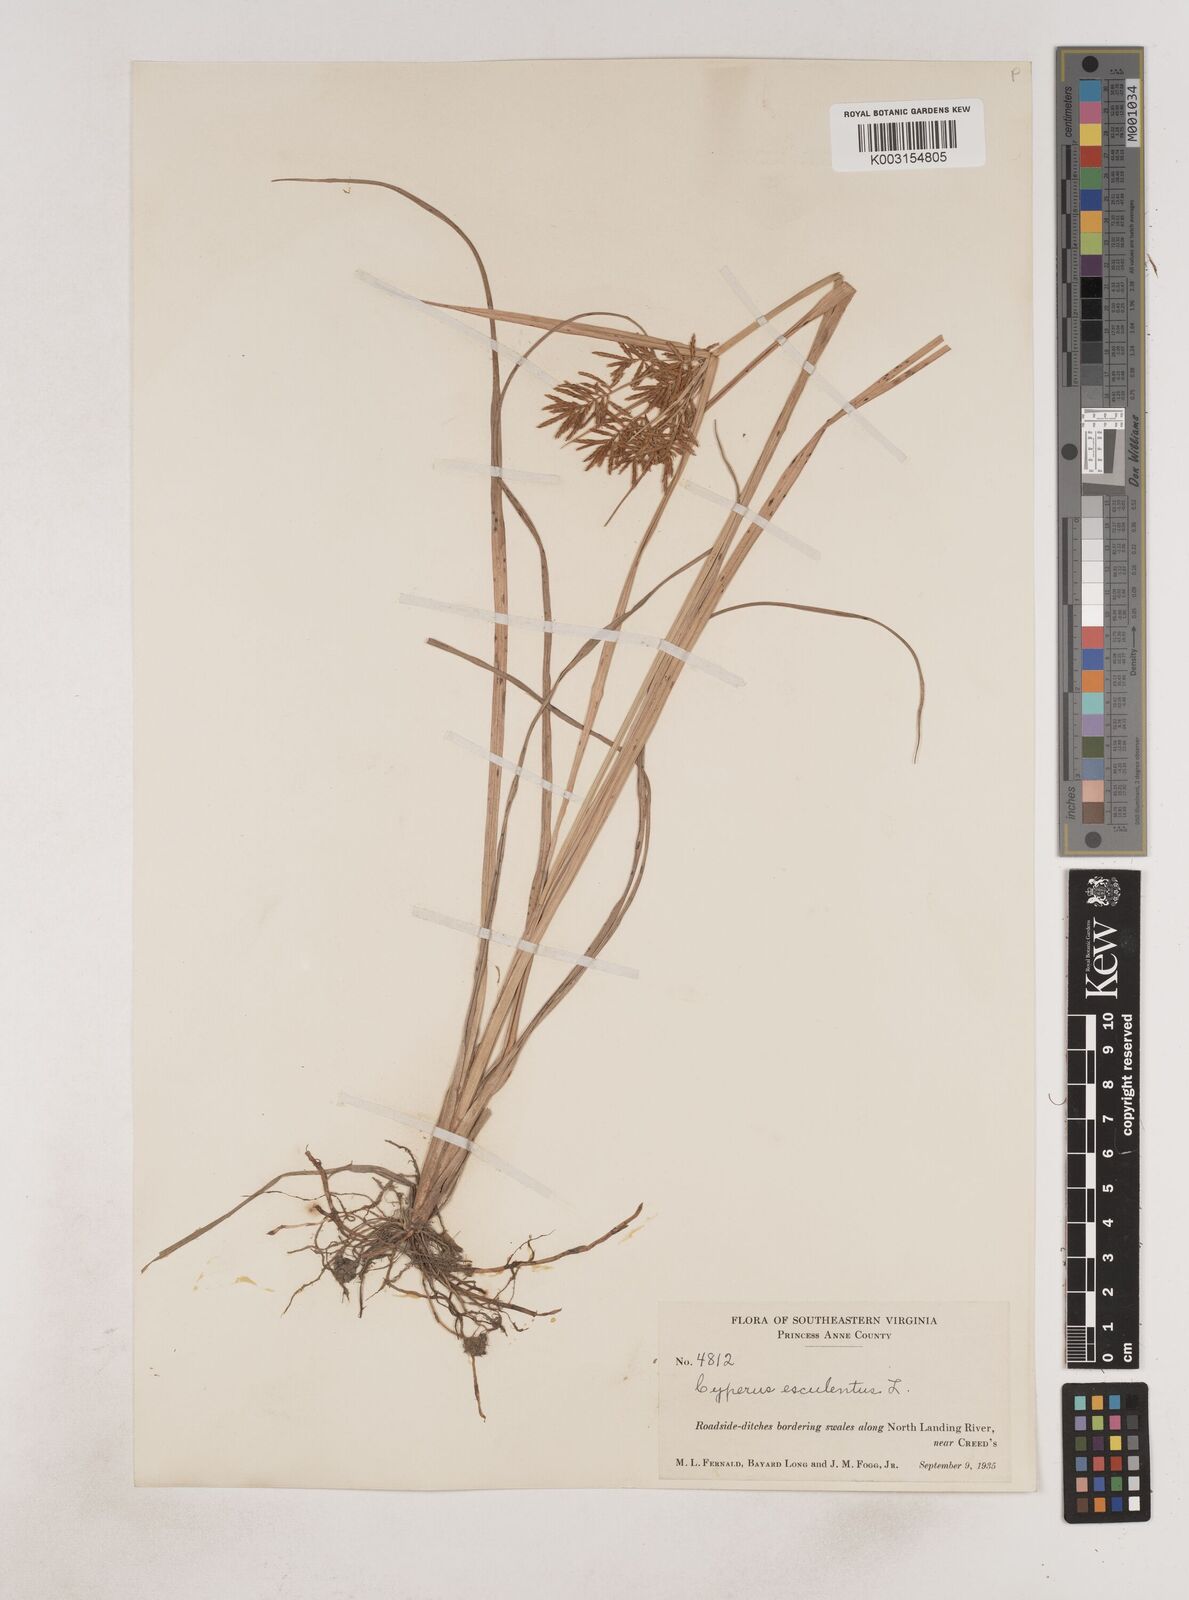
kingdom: Plantae
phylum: Tracheophyta
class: Liliopsida
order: Poales
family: Cyperaceae
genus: Cyperus
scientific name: Cyperus esculentus
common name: Yellow nutsedge
